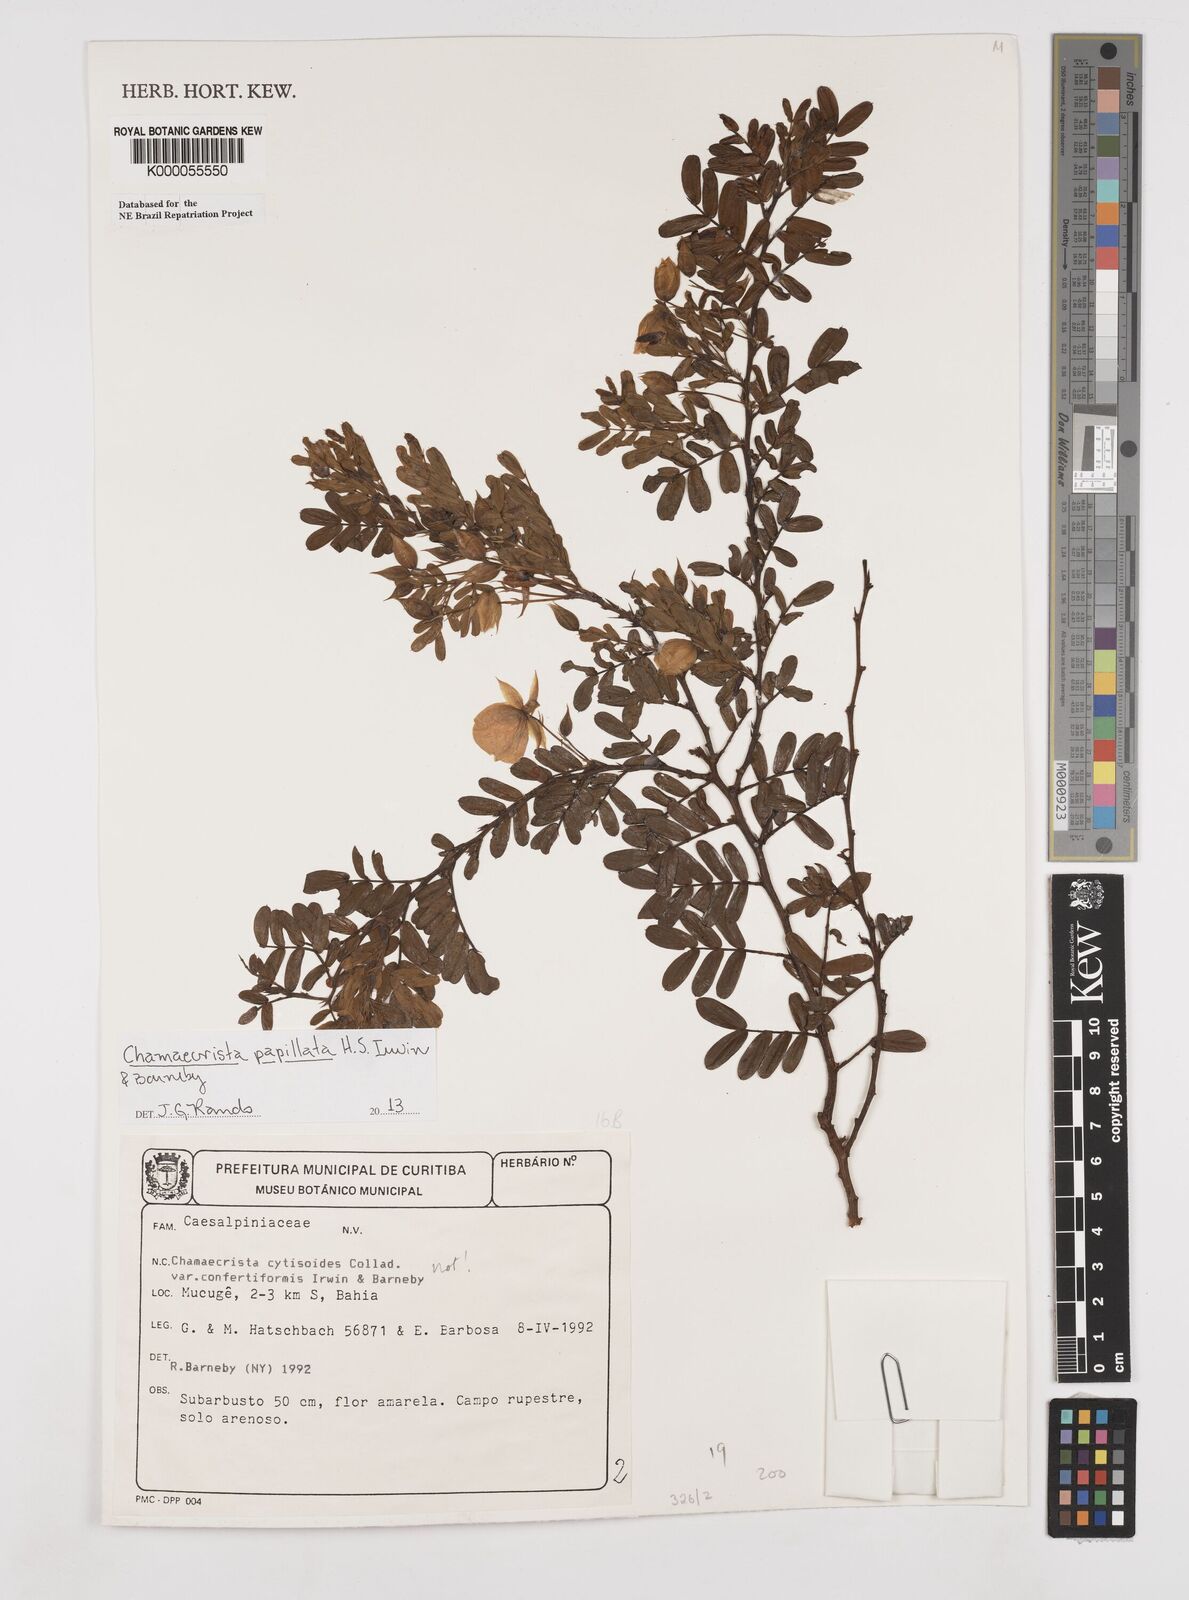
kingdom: Plantae
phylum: Tracheophyta
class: Magnoliopsida
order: Fabales
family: Fabaceae
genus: Chamaecrista
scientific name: Chamaecrista confertiformis
